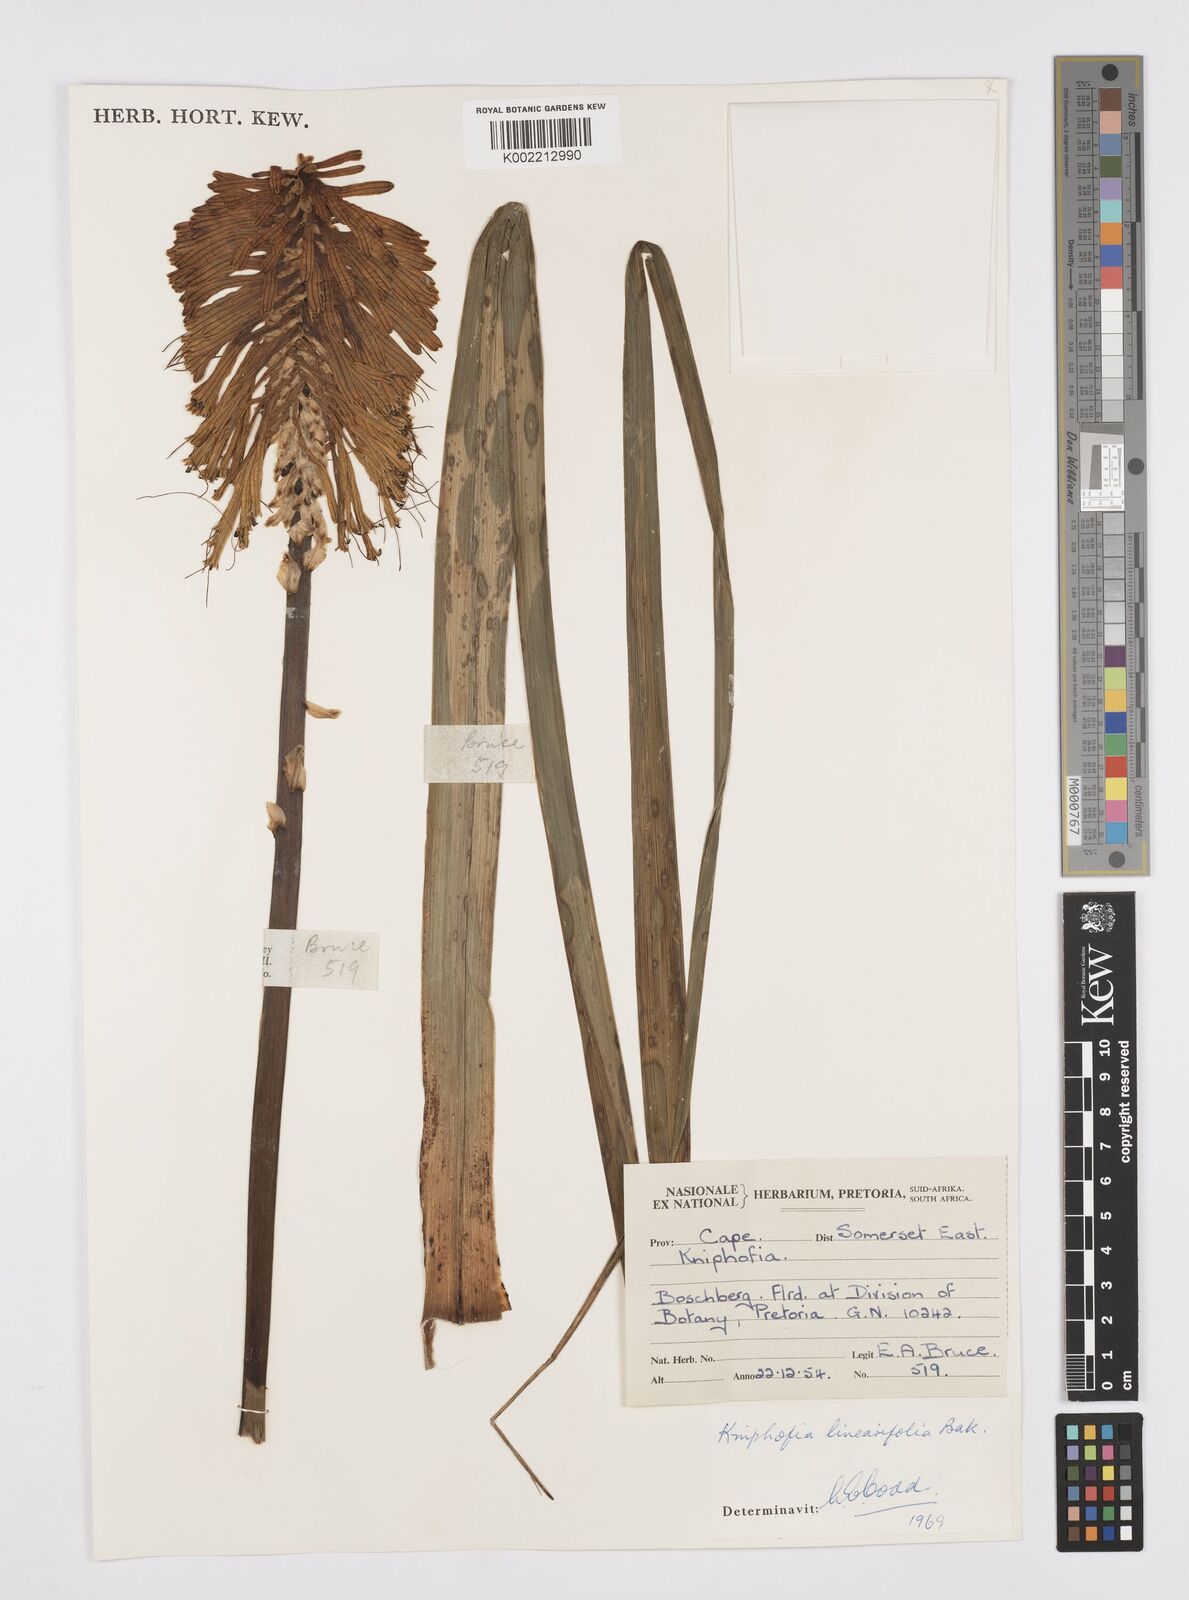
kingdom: Plantae
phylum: Tracheophyta
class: Liliopsida
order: Asparagales
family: Asphodelaceae
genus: Kniphofia
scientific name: Kniphofia linearifolia
